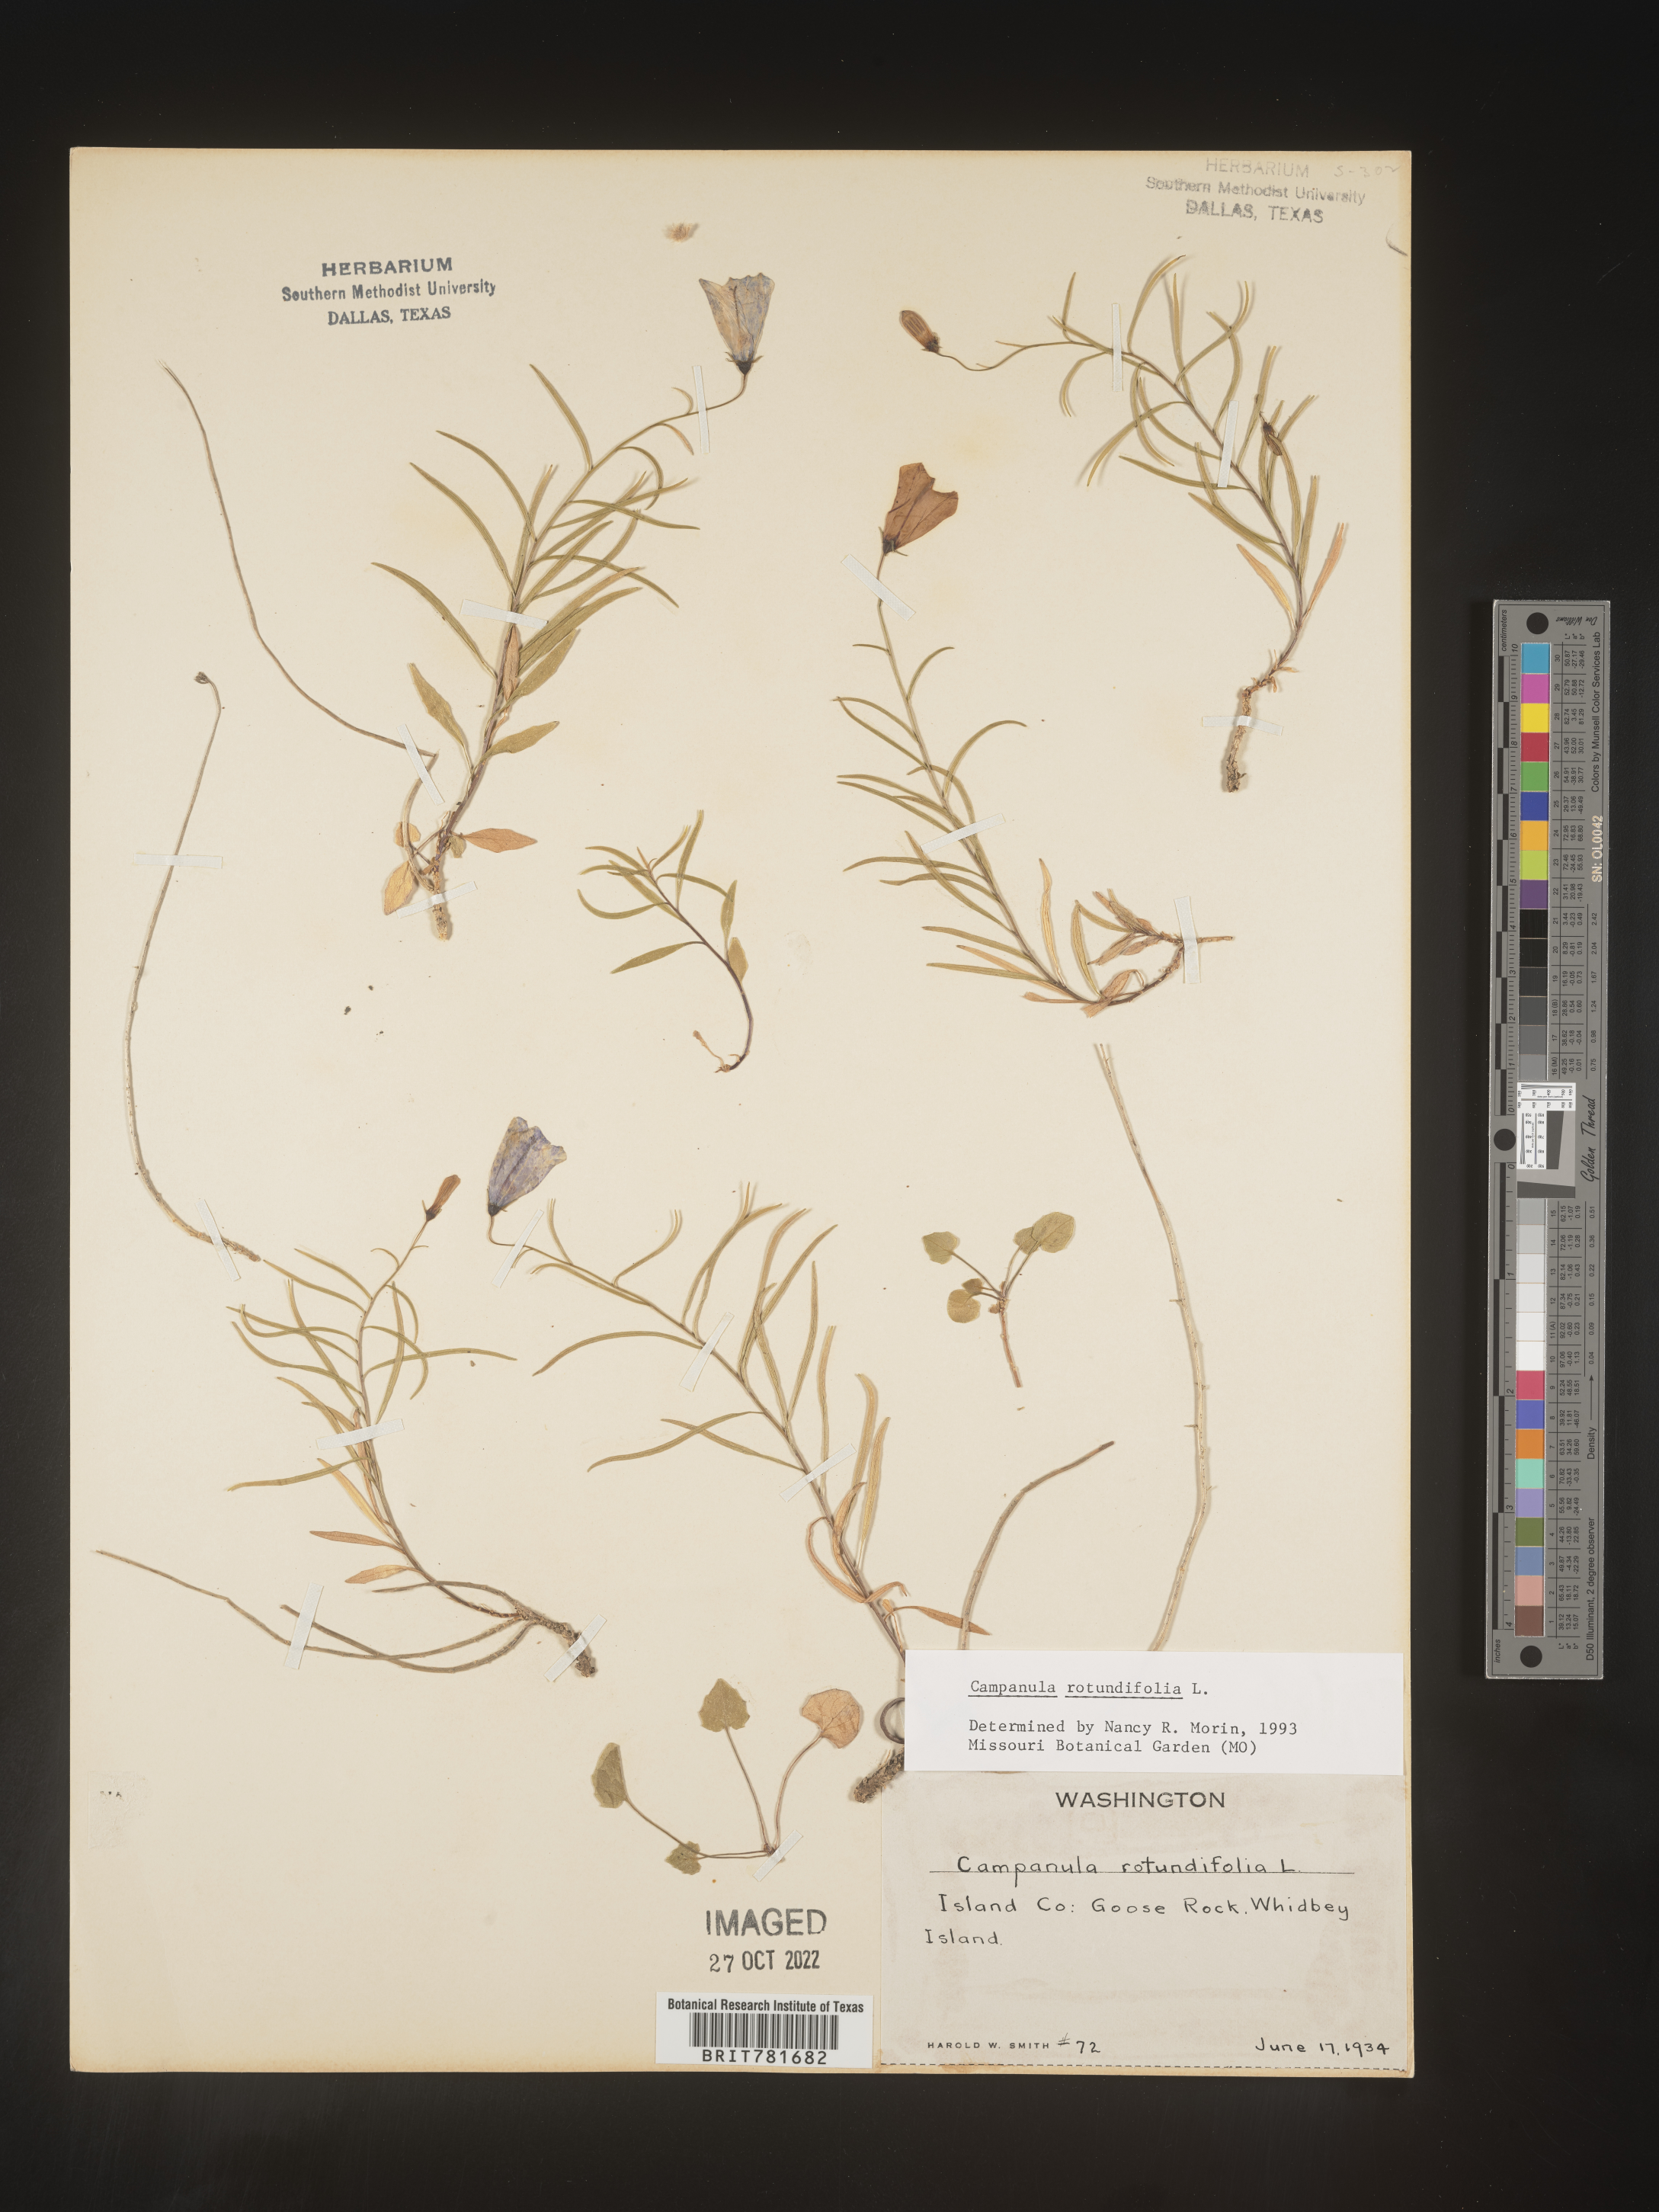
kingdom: Plantae
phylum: Tracheophyta
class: Magnoliopsida
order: Asterales
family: Campanulaceae
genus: Campanula
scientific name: Campanula rotundifolia
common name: Harebell
